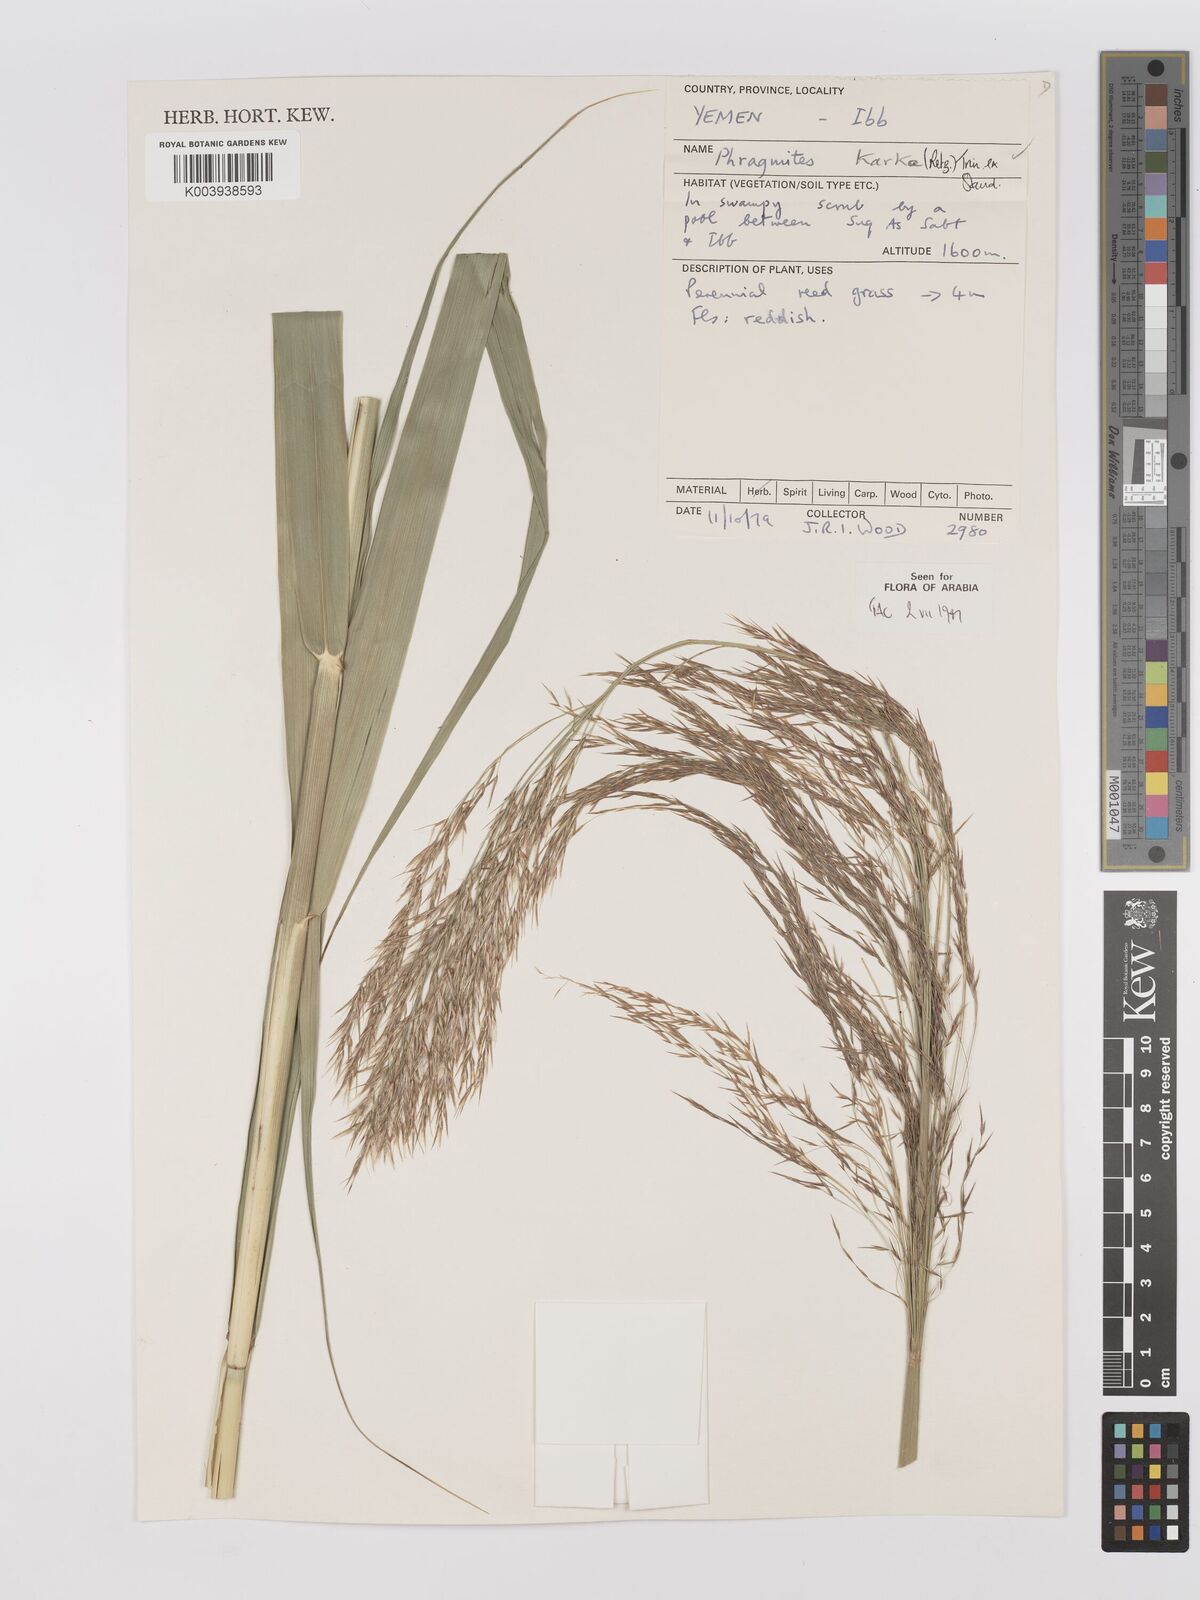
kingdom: Plantae
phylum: Tracheophyta
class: Liliopsida
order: Poales
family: Poaceae
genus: Phragmites
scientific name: Phragmites karka
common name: Tropical reed
